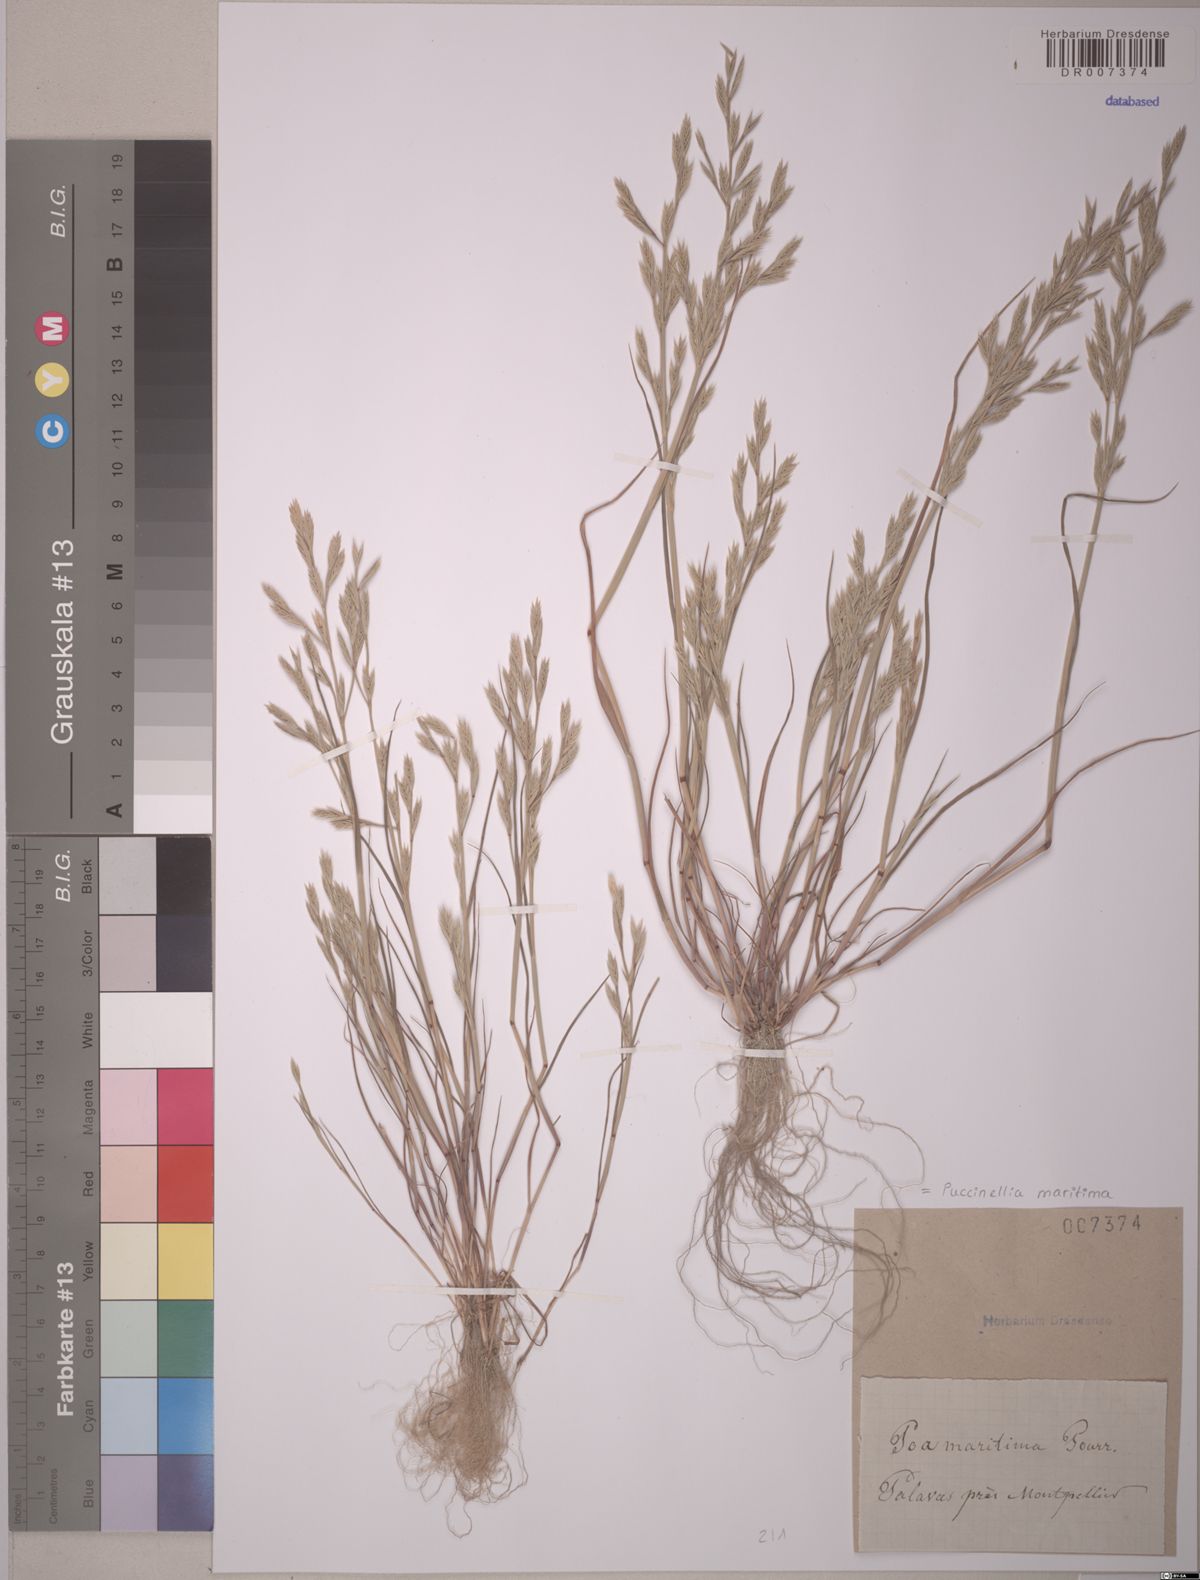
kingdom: Plantae
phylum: Tracheophyta
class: Liliopsida
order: Poales
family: Poaceae
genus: Puccinellia
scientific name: Puccinellia maritima
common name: Common saltmarsh grass
